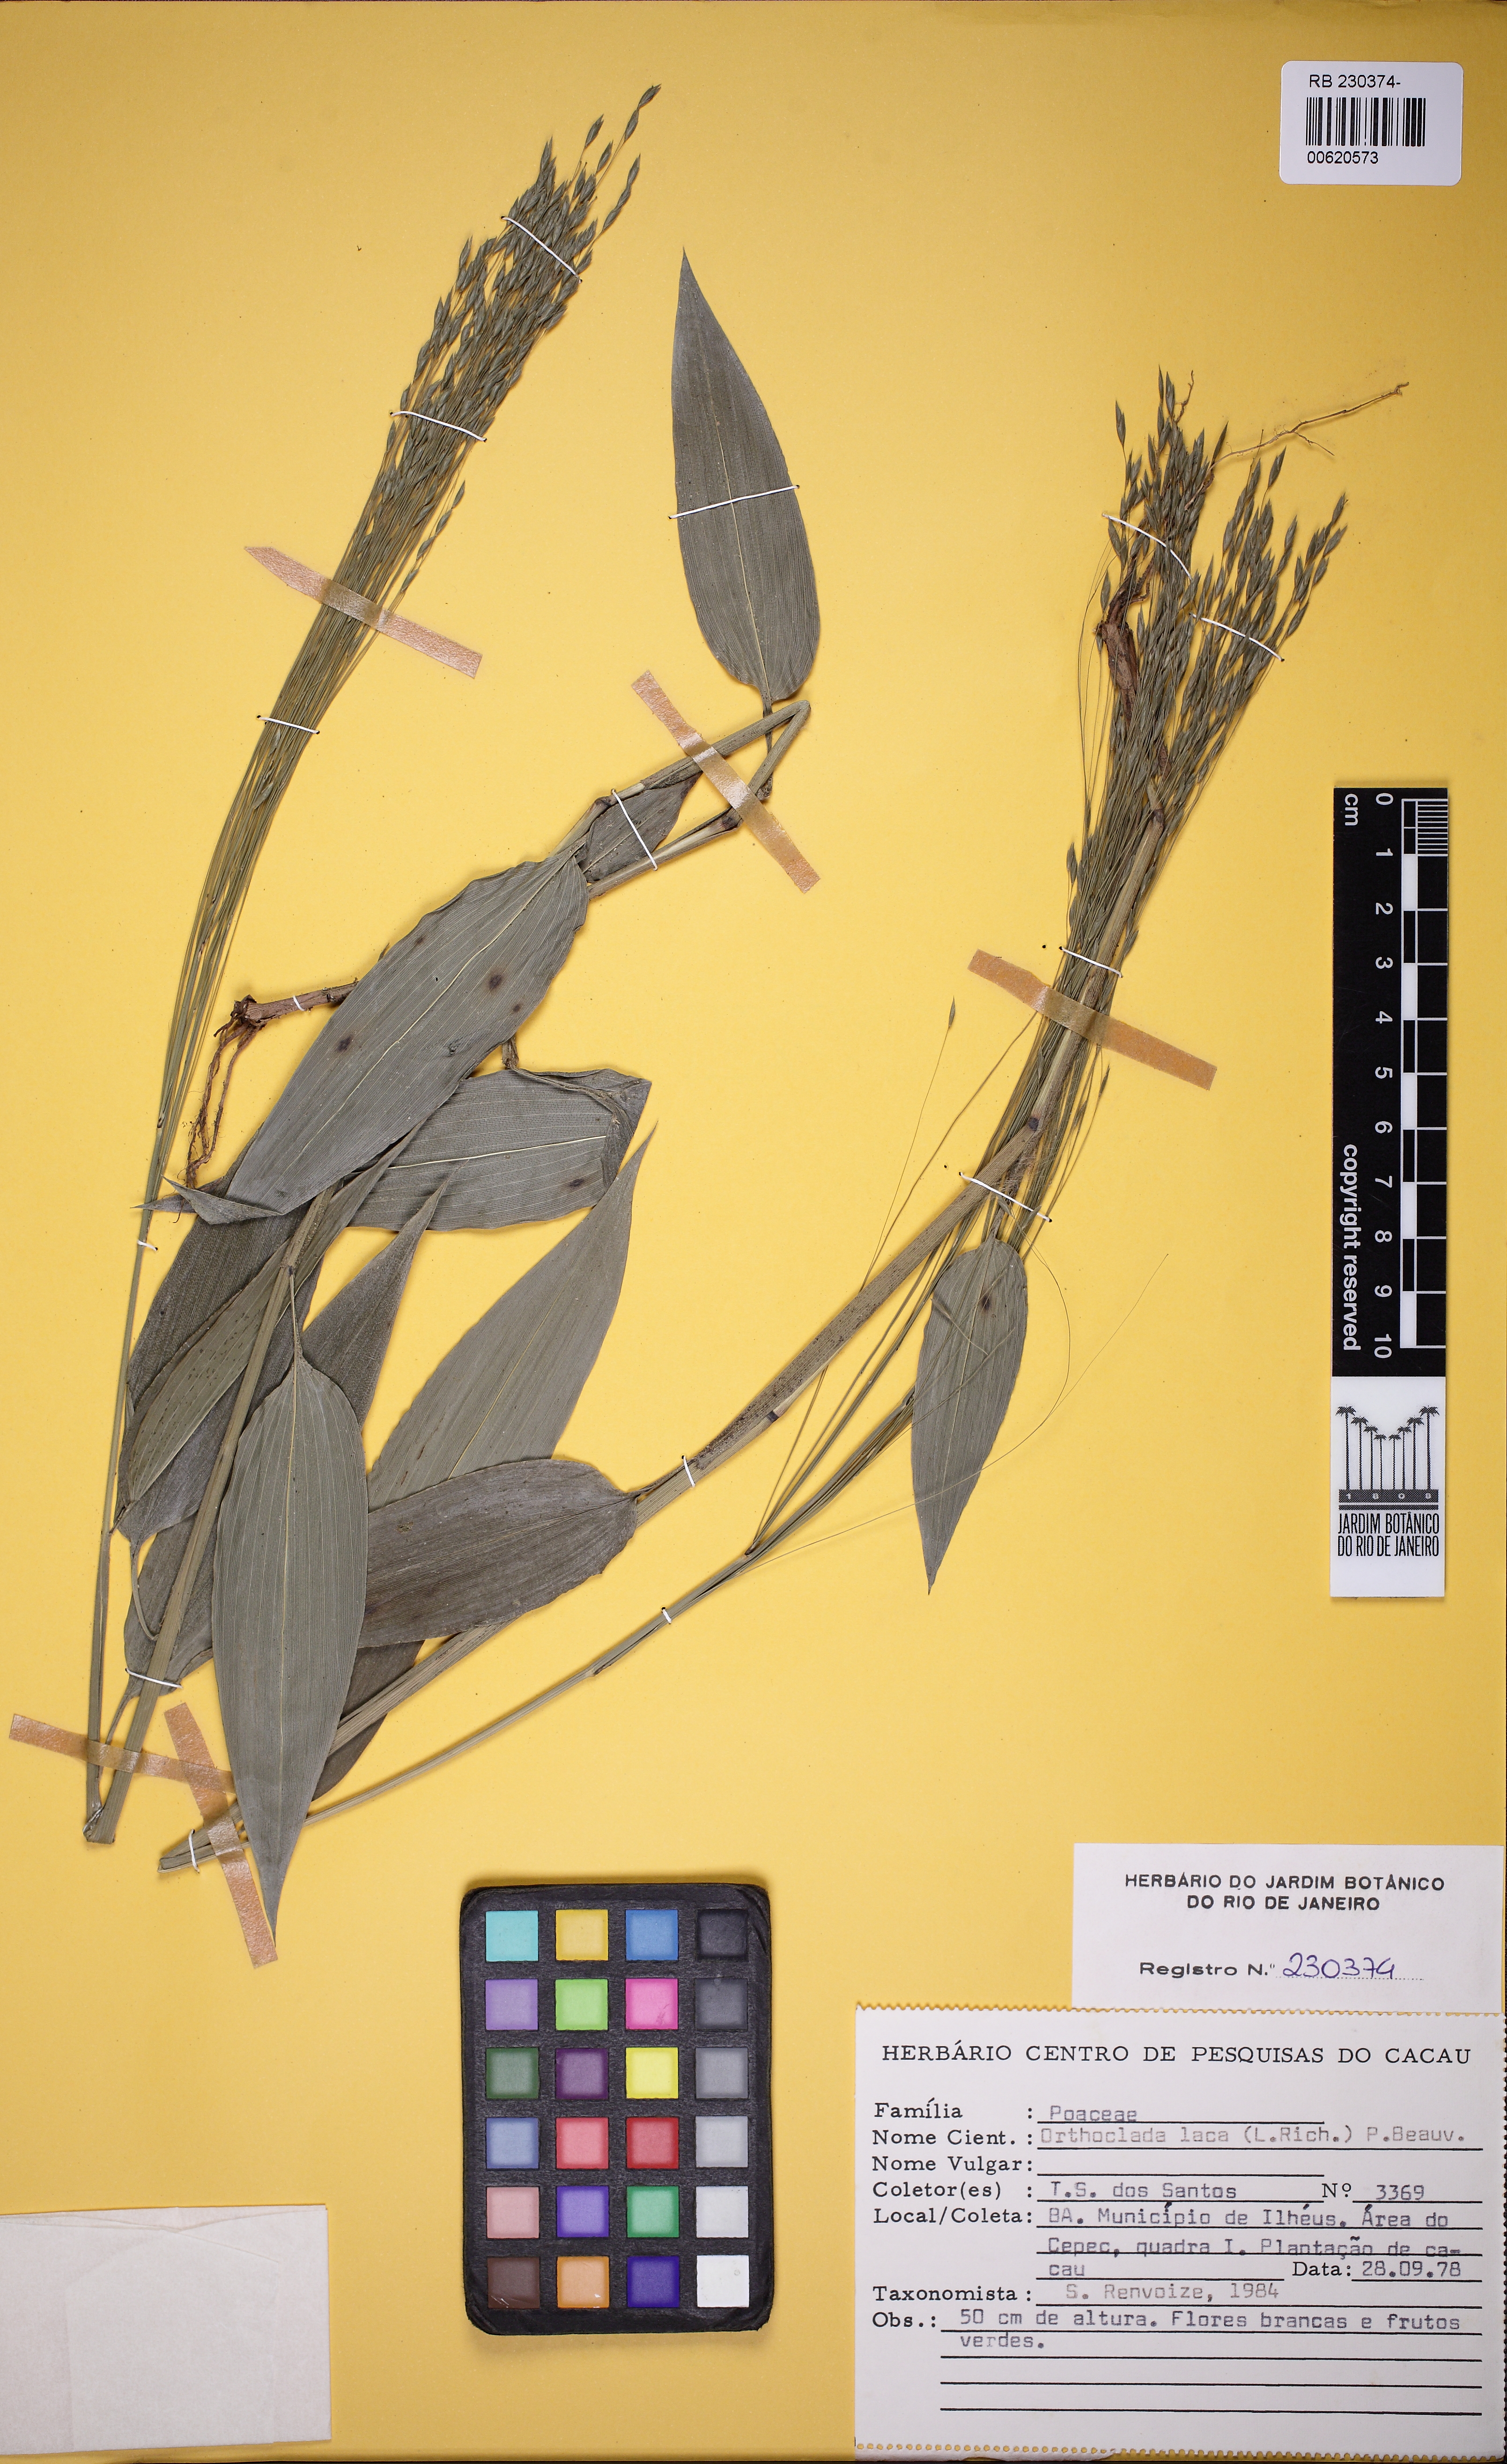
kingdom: Plantae
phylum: Tracheophyta
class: Liliopsida
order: Poales
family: Poaceae
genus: Orthoclada
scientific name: Orthoclada laxa
